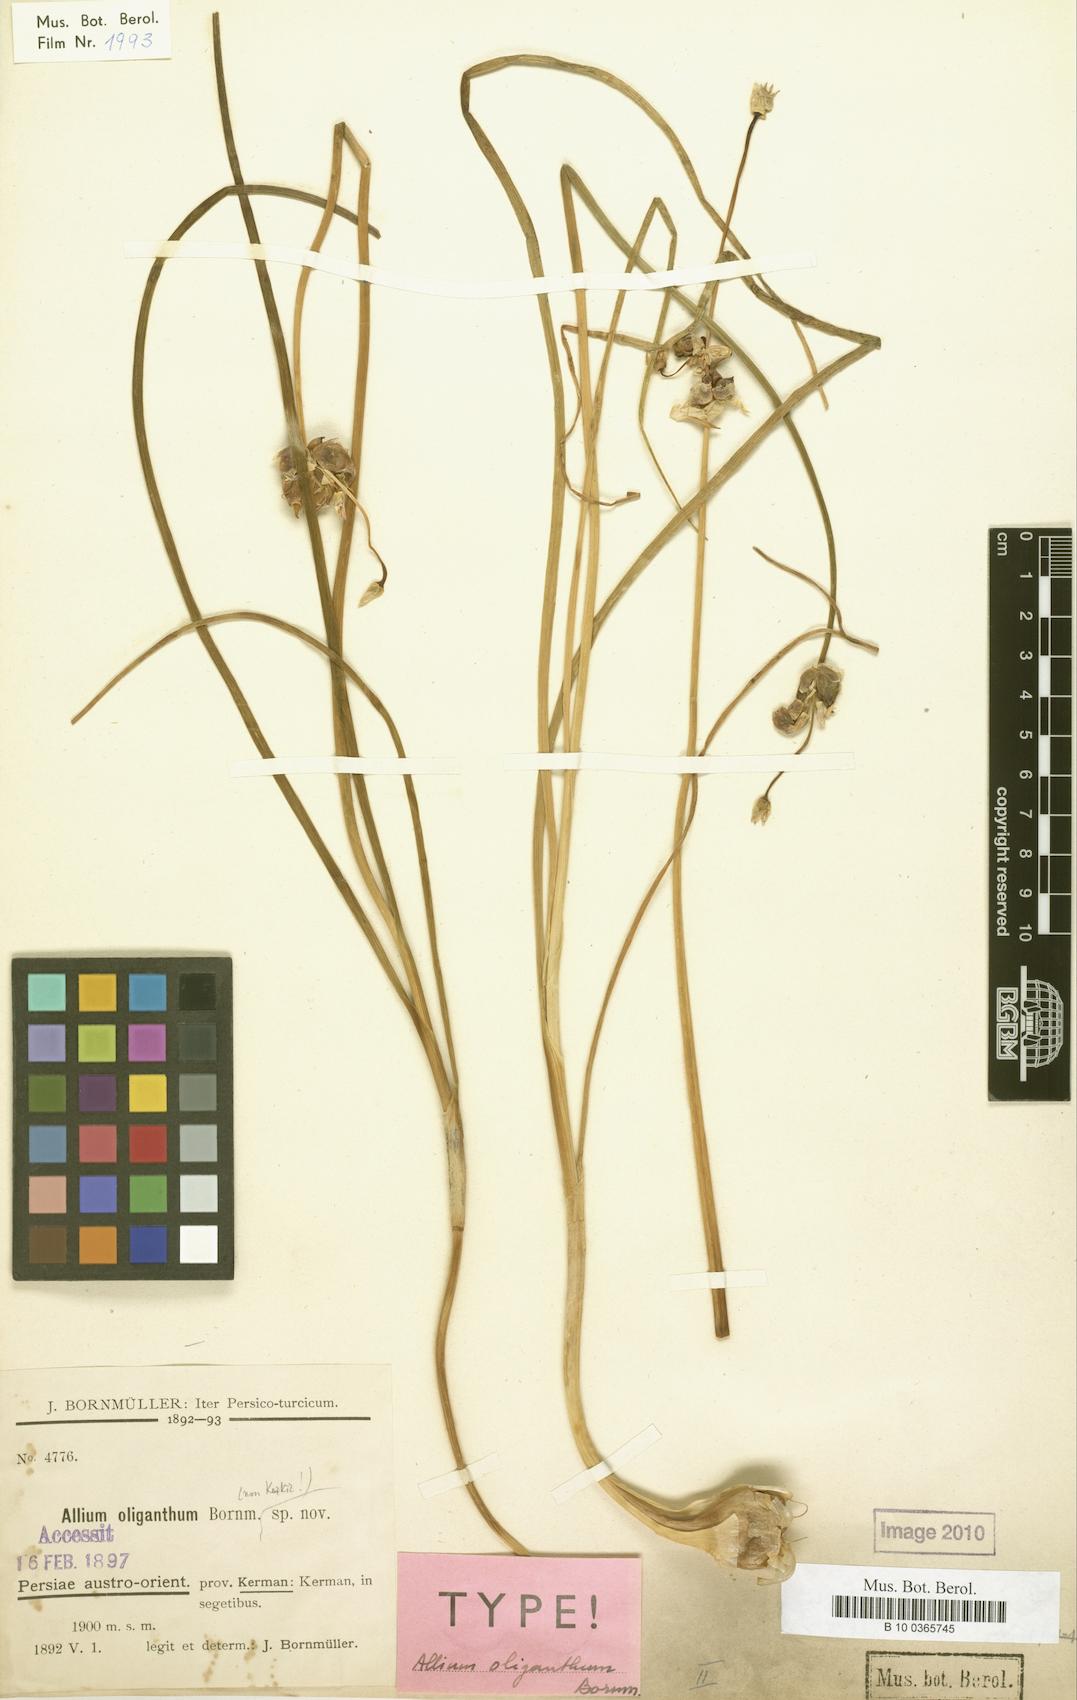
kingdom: Plantae
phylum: Tracheophyta
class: Liliopsida
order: Asparagales
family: Amaryllidaceae
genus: Allium
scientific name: Allium oliganthum
